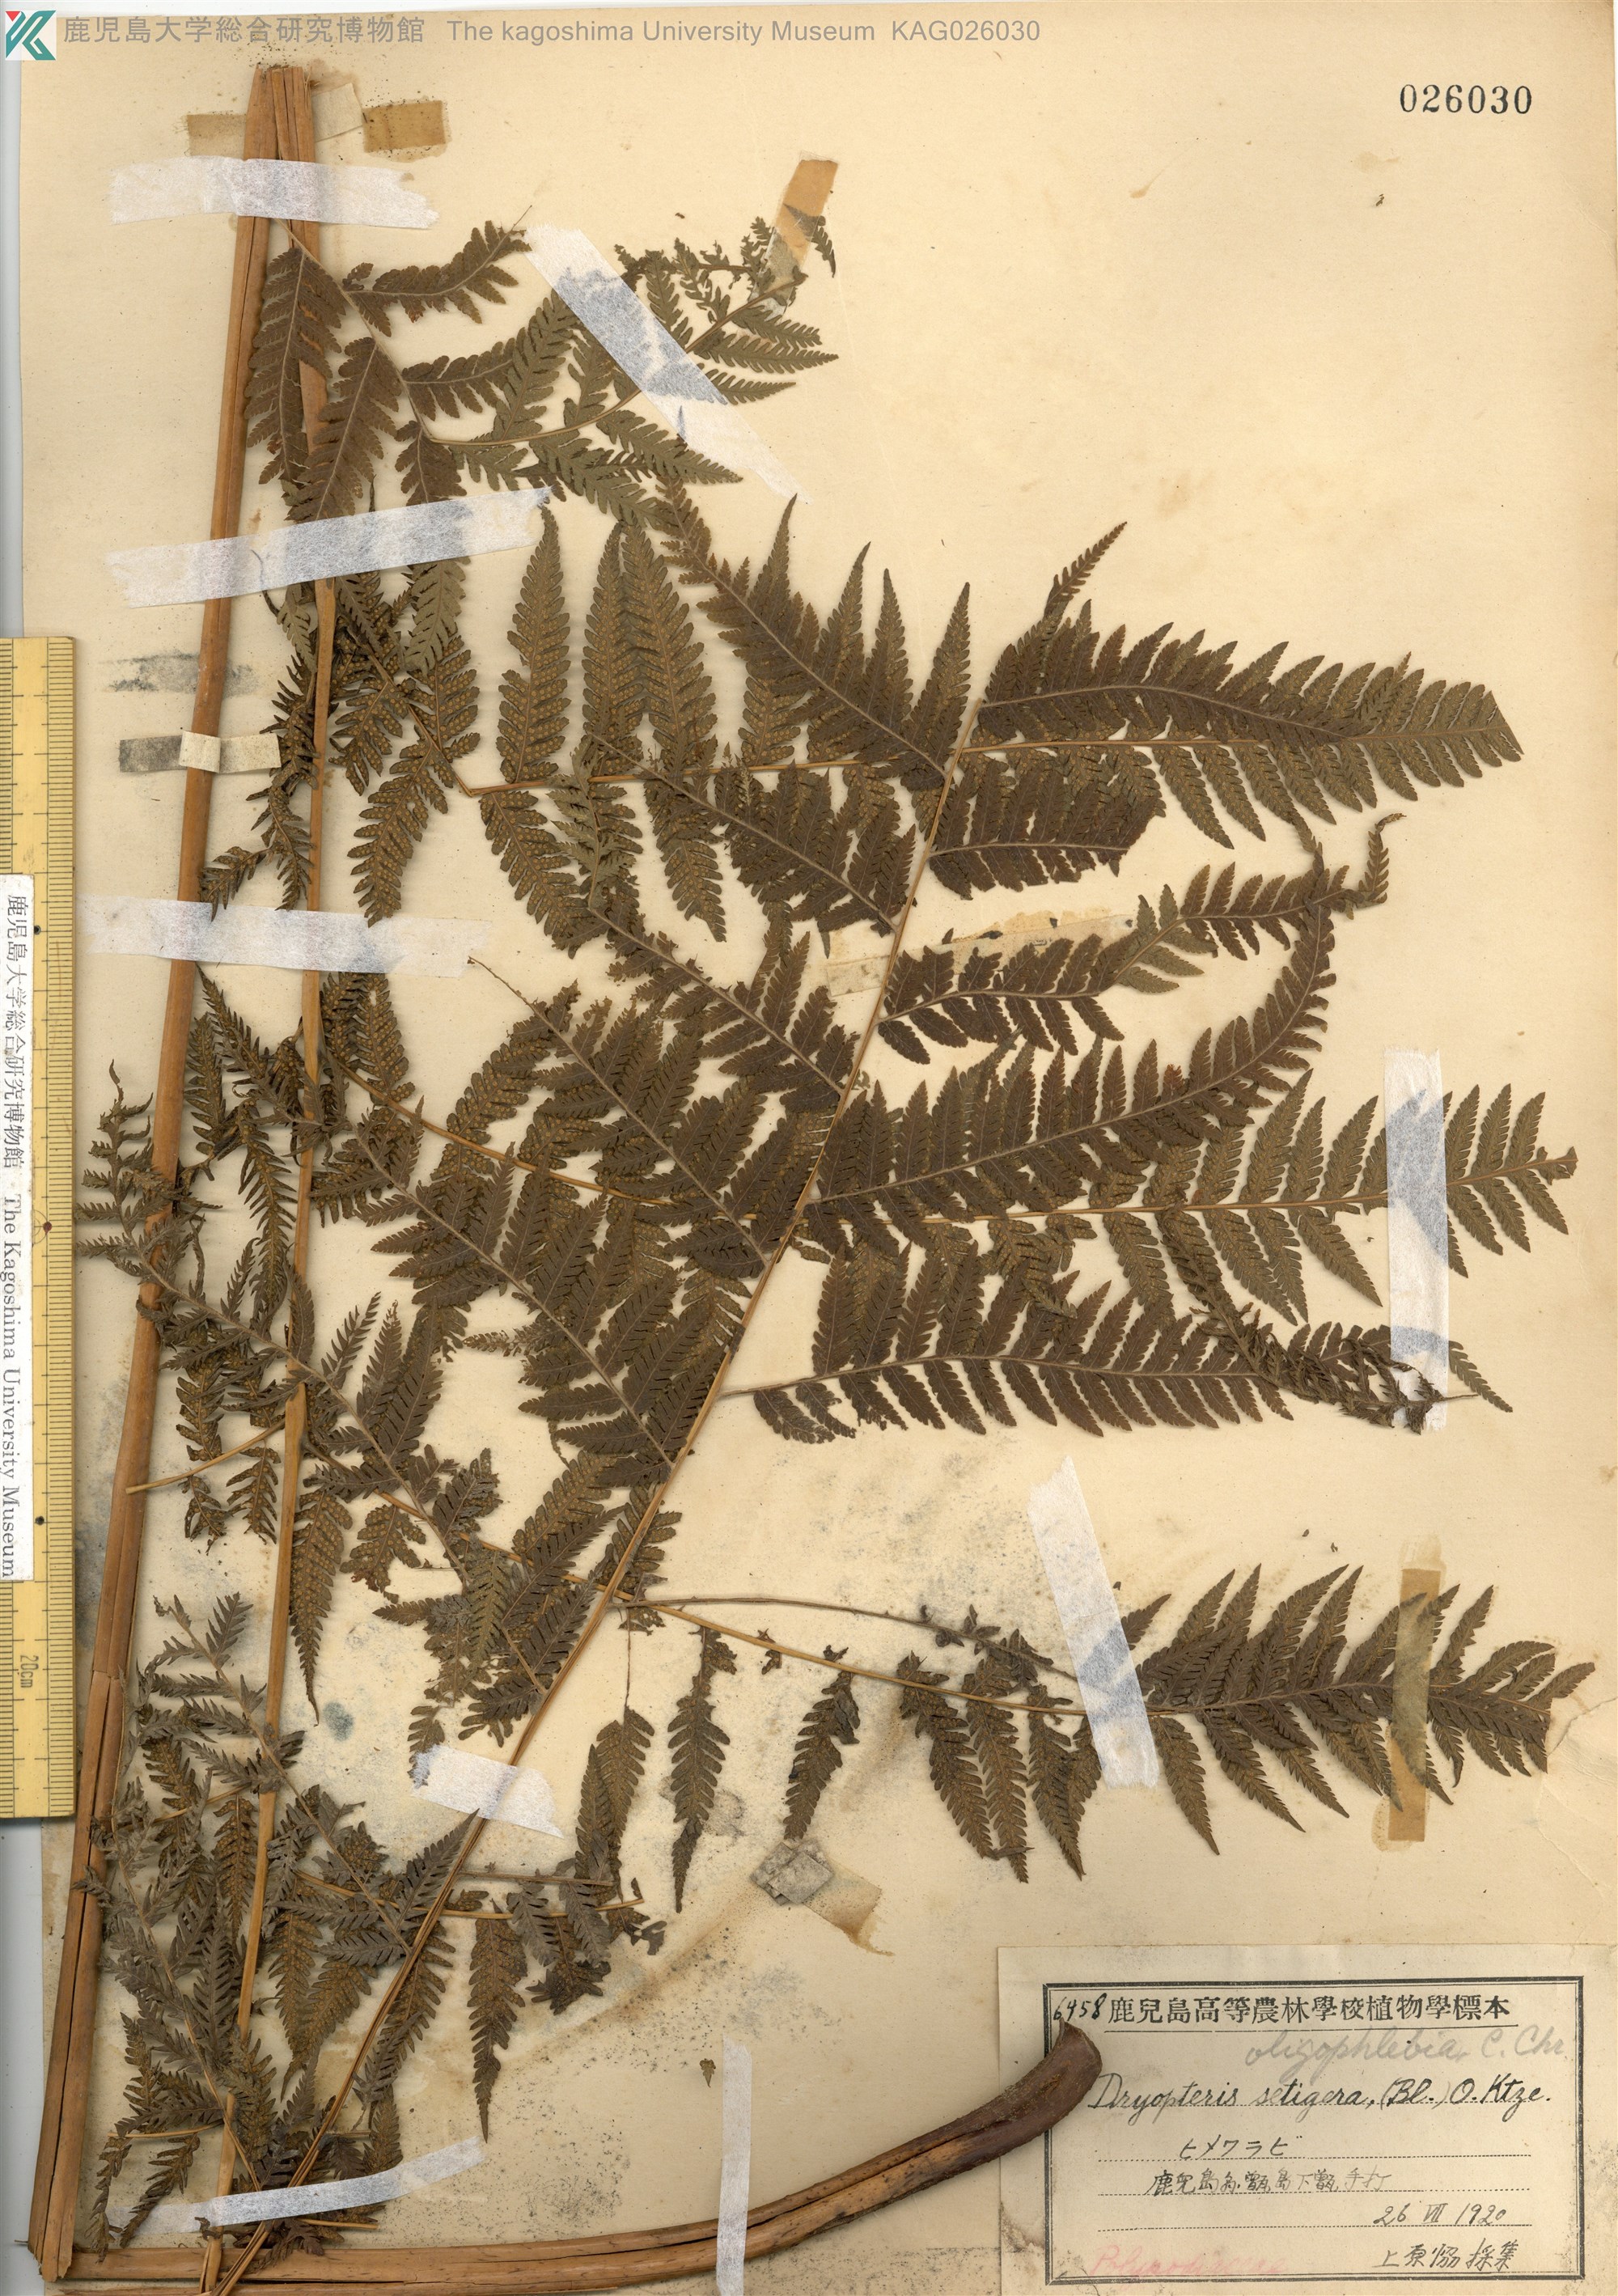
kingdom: Plantae
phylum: Tracheophyta
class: Polypodiopsida
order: Polypodiales
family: Thelypteridaceae
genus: Macrothelypteris
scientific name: Macrothelypteris oligophlebia
